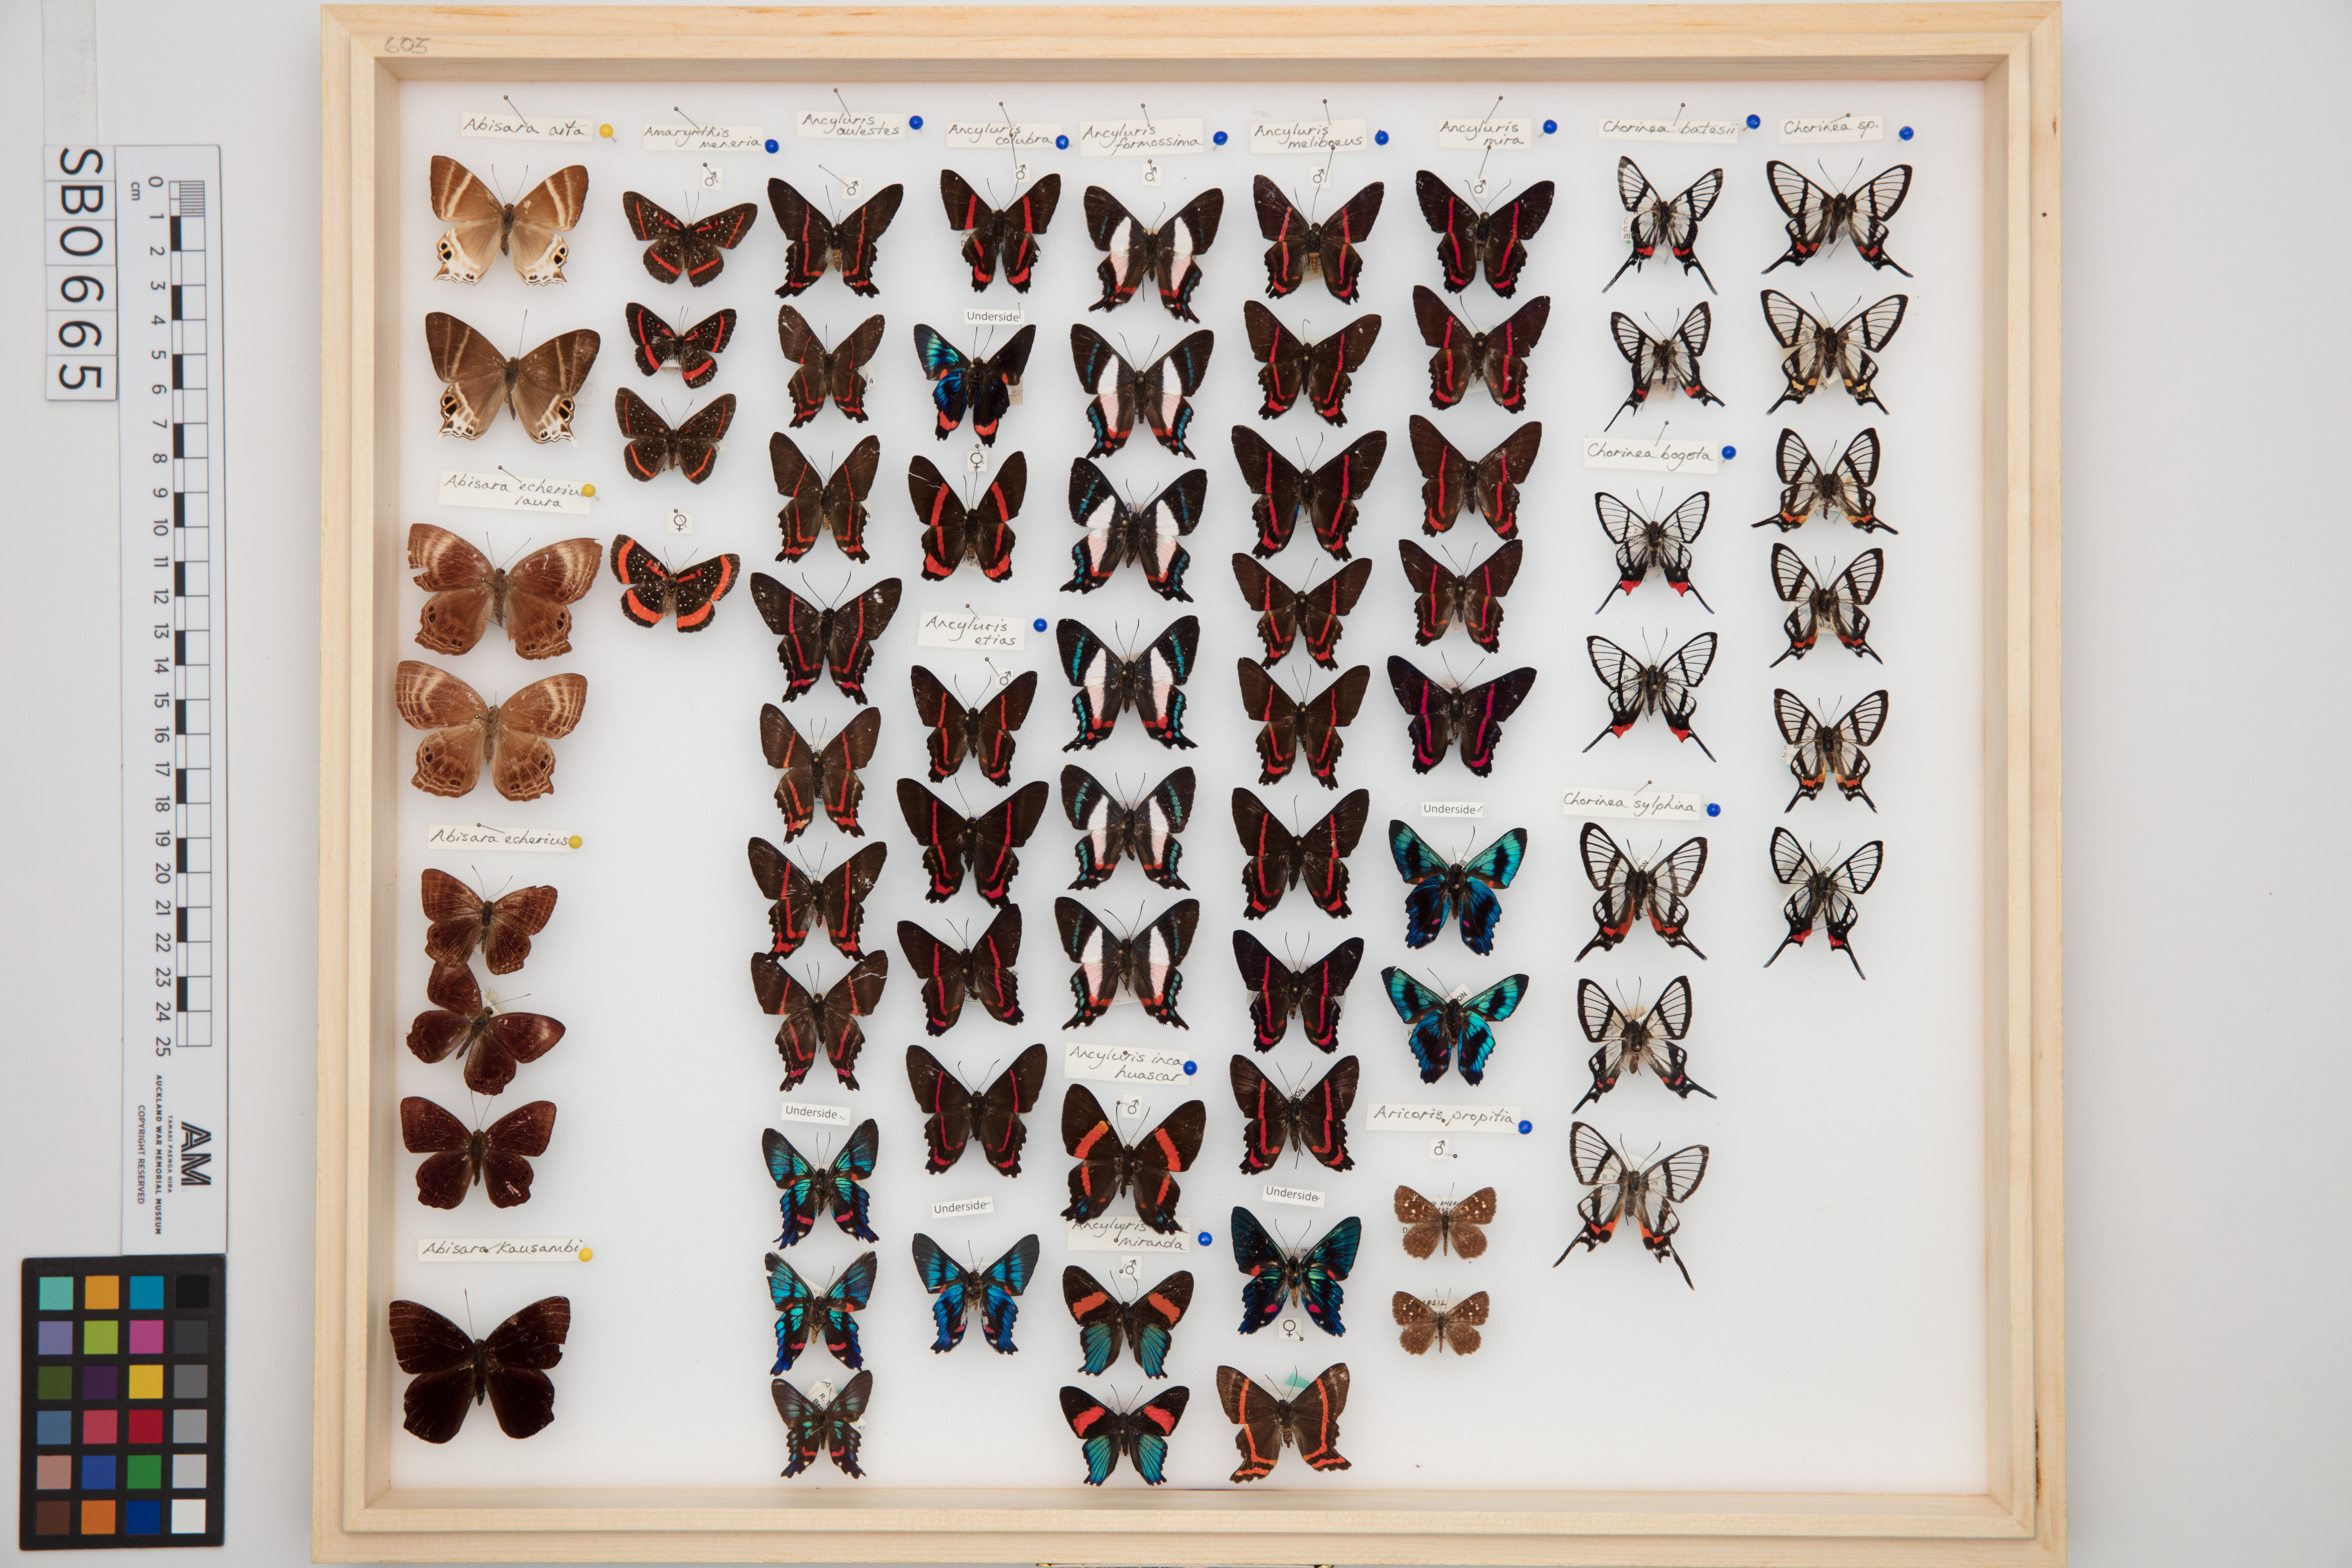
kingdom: Animalia
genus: Ancyluris
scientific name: Ancyluris formosissima
